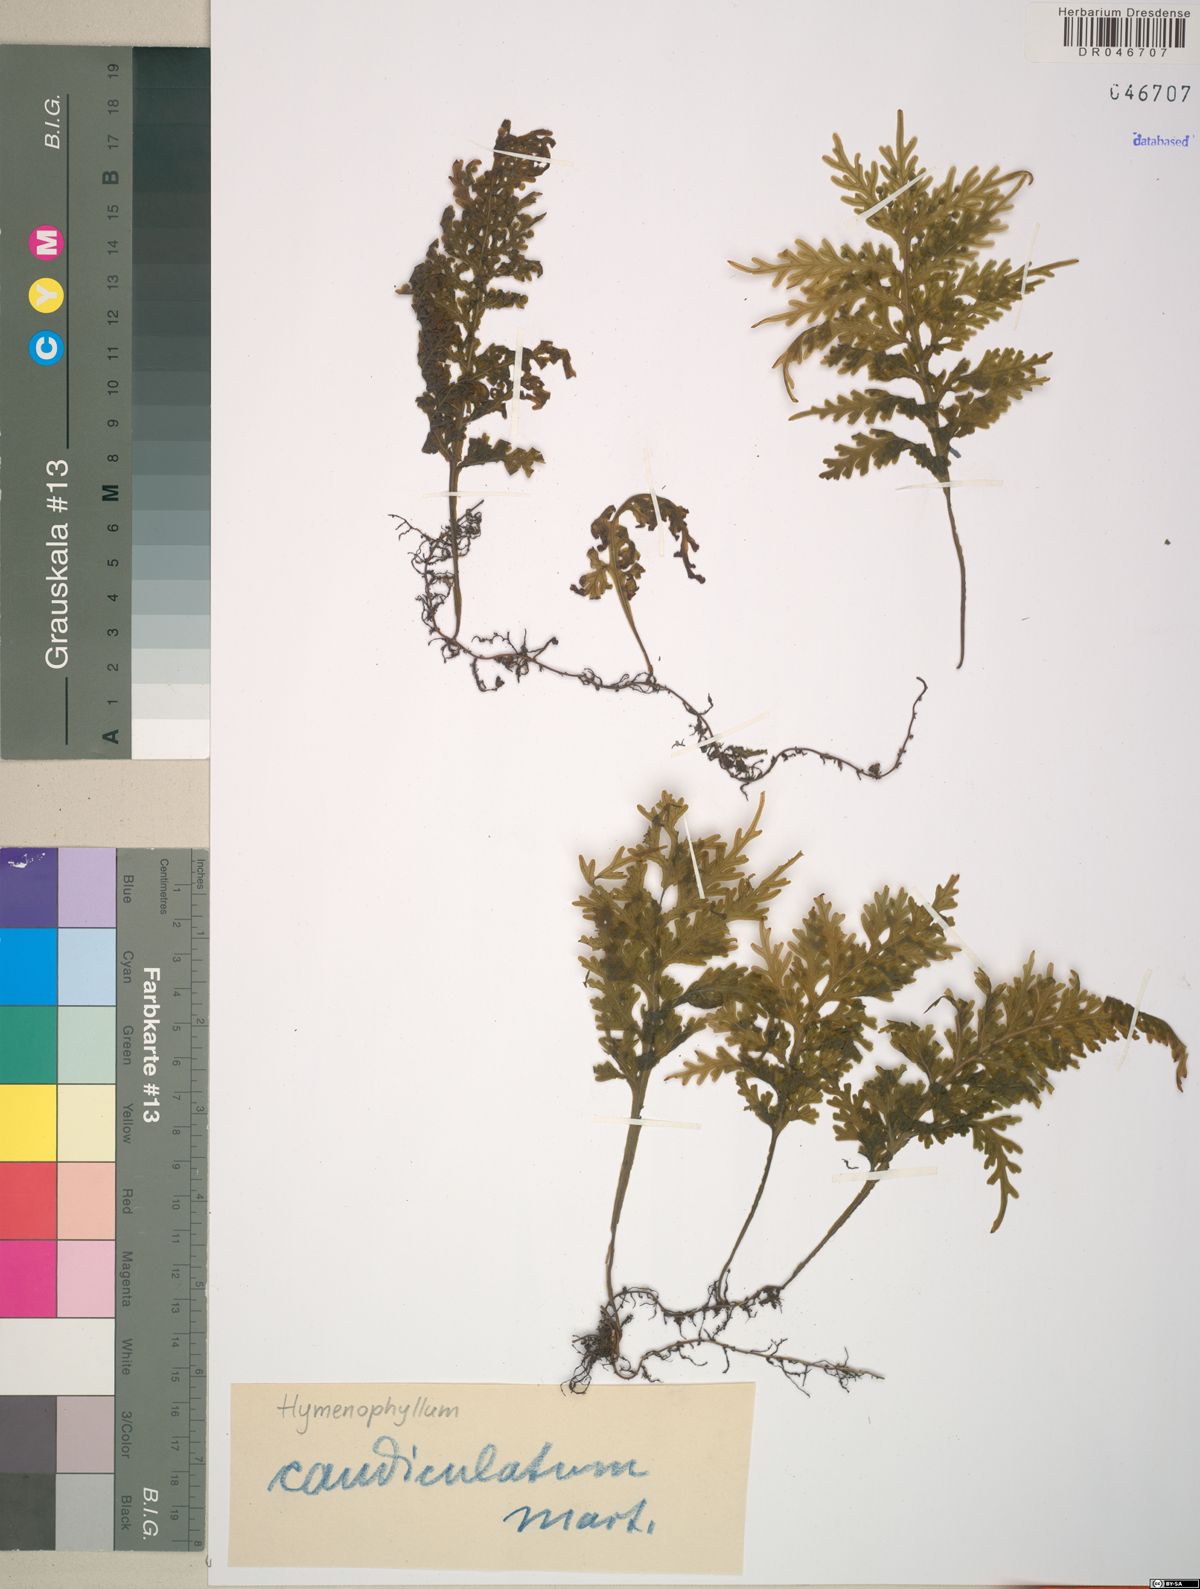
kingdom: Plantae
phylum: Tracheophyta
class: Polypodiopsida
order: Hymenophyllales
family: Hymenophyllaceae
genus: Hymenophyllum
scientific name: Hymenophyllum caudiculatum
